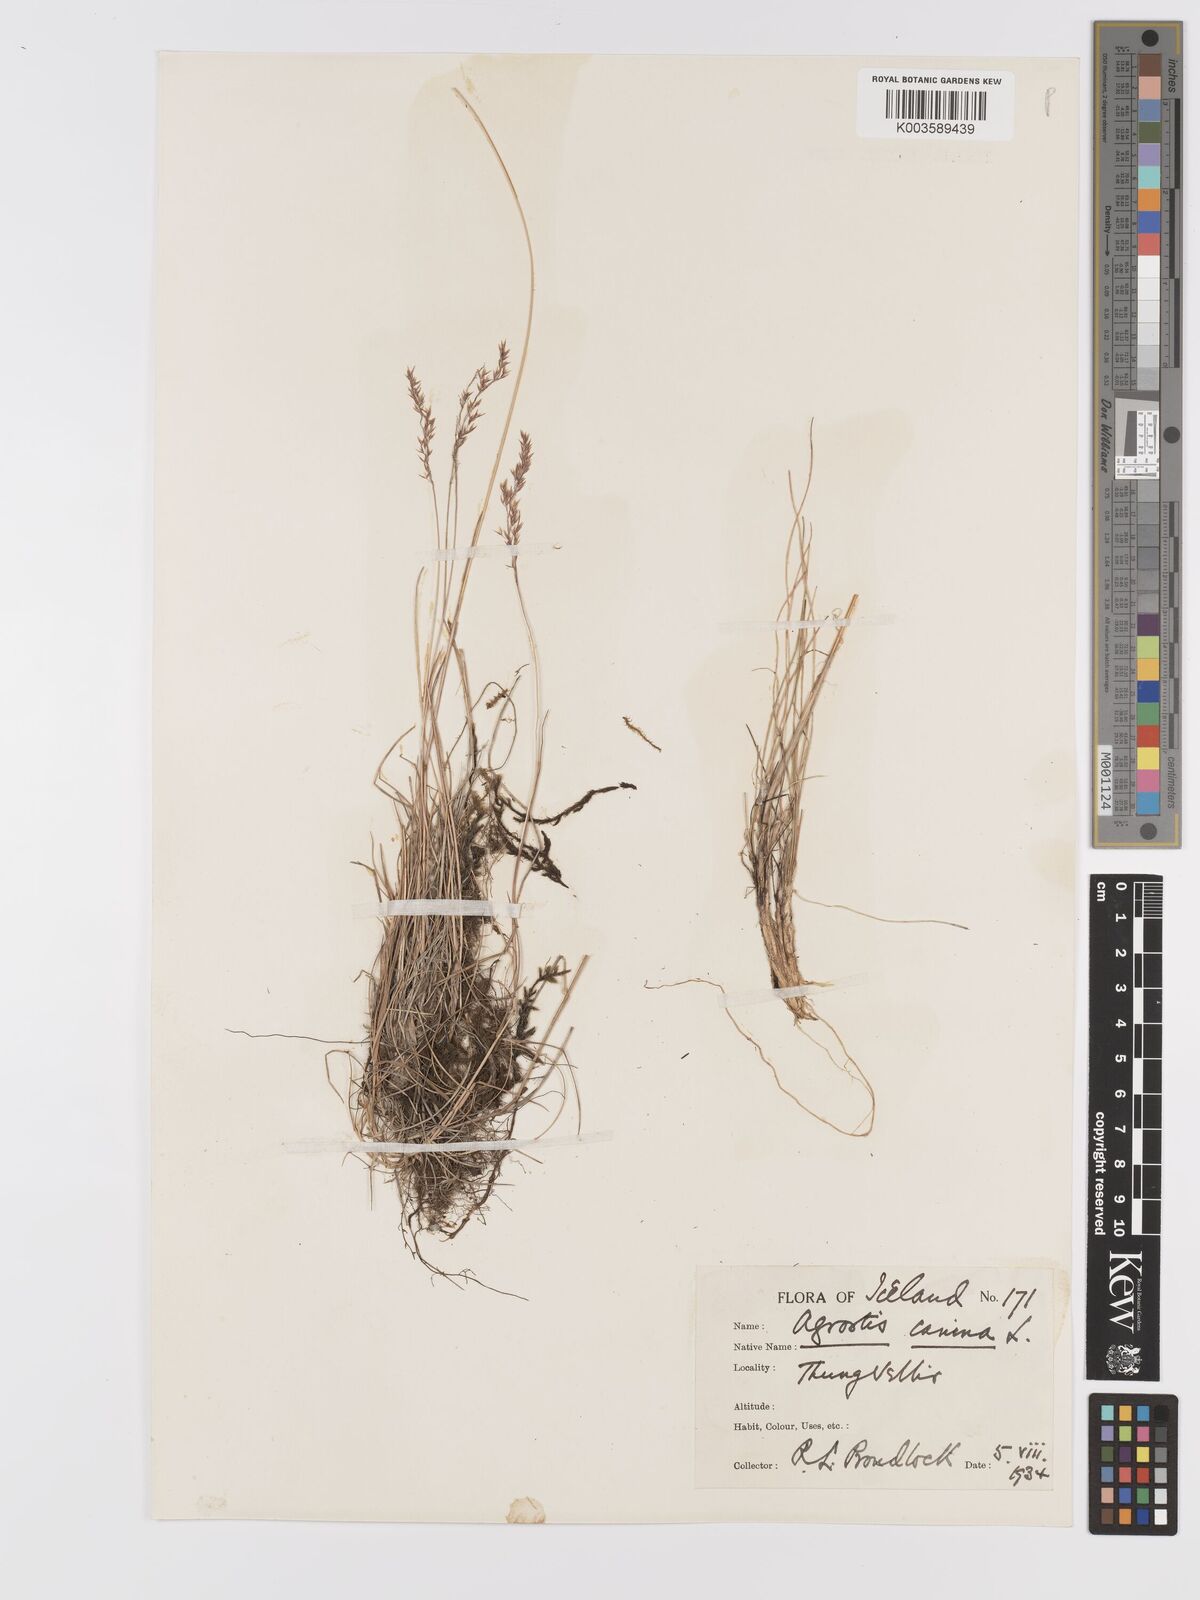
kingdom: Plantae
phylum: Tracheophyta
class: Liliopsida
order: Poales
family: Poaceae
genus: Agrostis
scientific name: Agrostis canina
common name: Velvet bent
